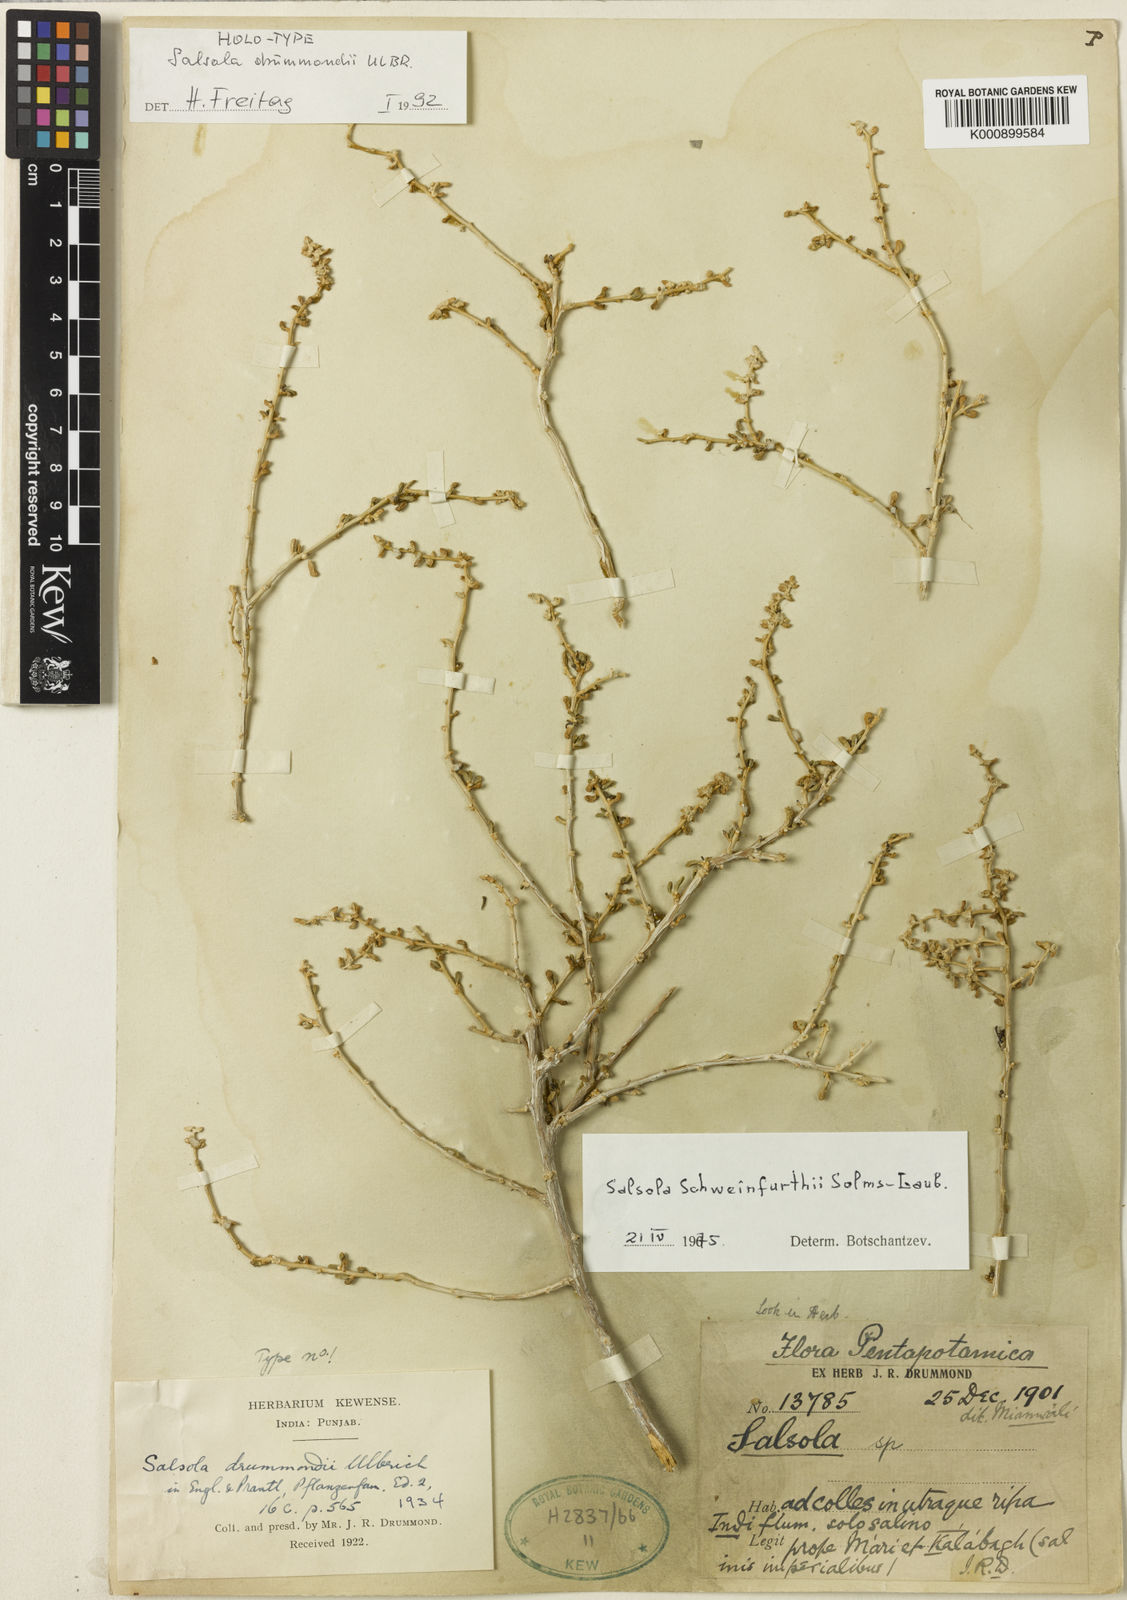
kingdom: Plantae
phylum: Tracheophyta
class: Magnoliopsida
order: Caryophyllales
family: Amaranthaceae
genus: Soda
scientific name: Soda drummondii
